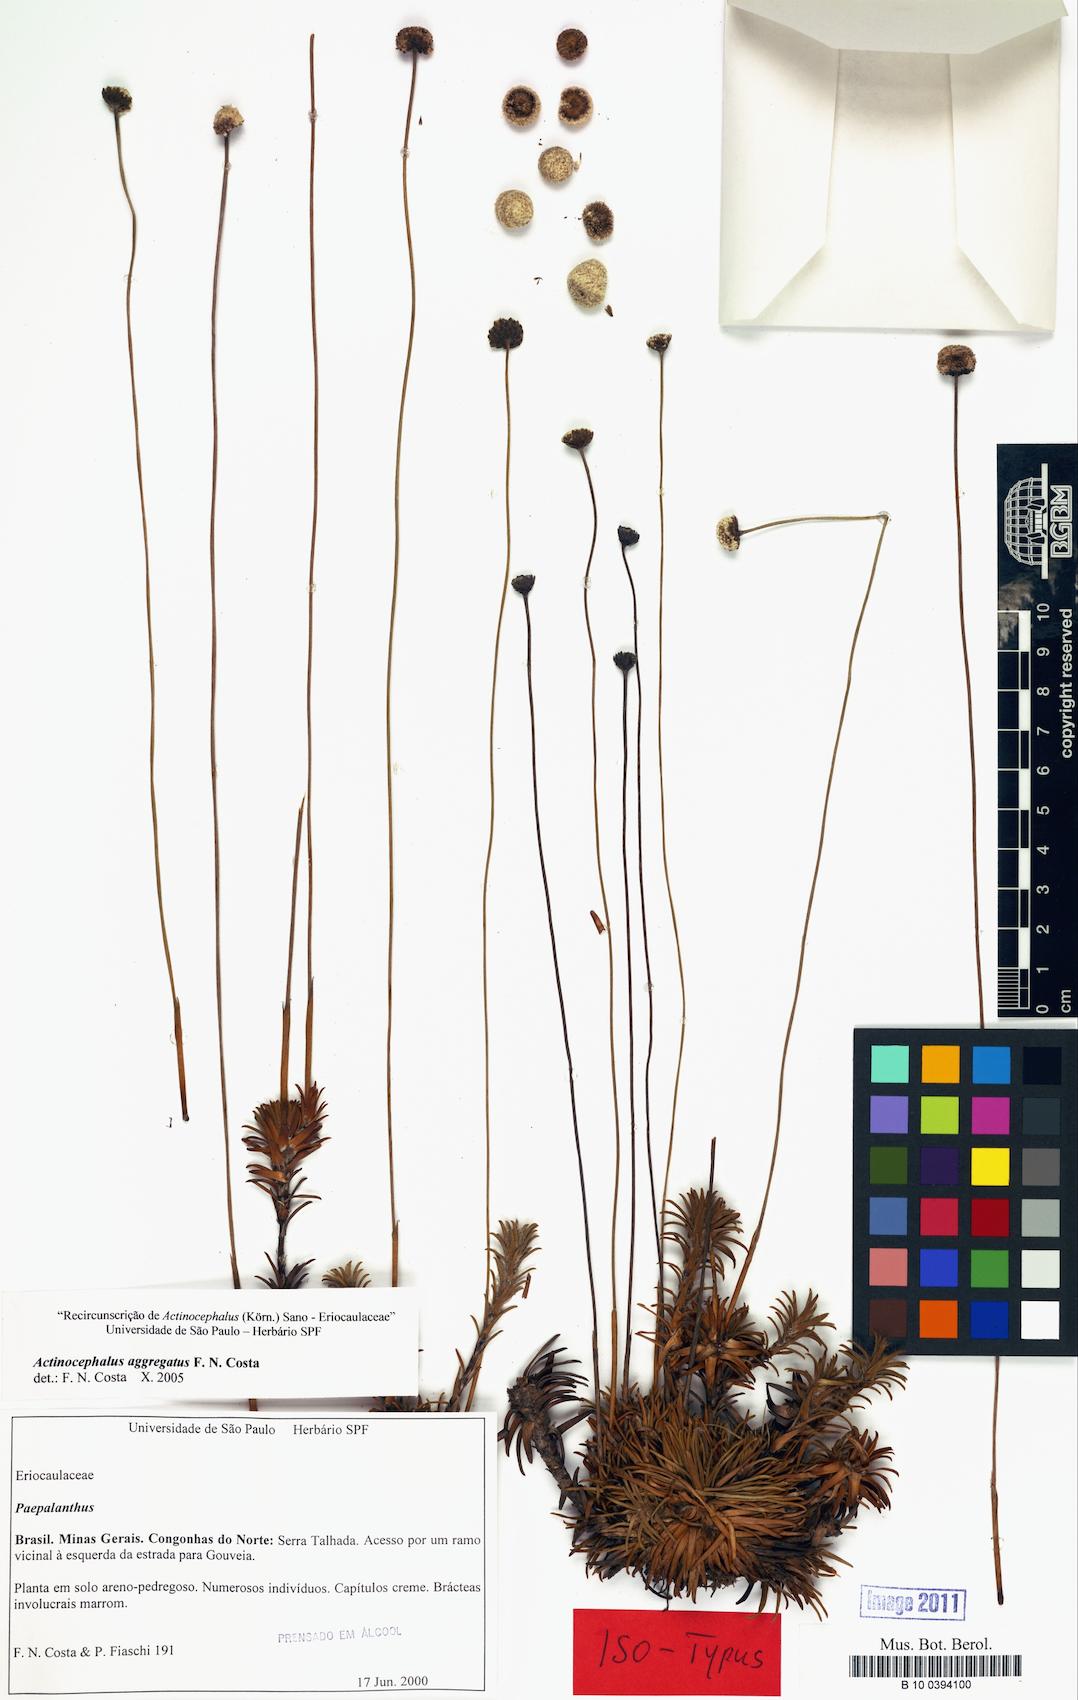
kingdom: Plantae
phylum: Tracheophyta
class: Liliopsida
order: Poales
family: Eriocaulaceae
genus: Paepalanthus
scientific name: Paepalanthus aggregatus
